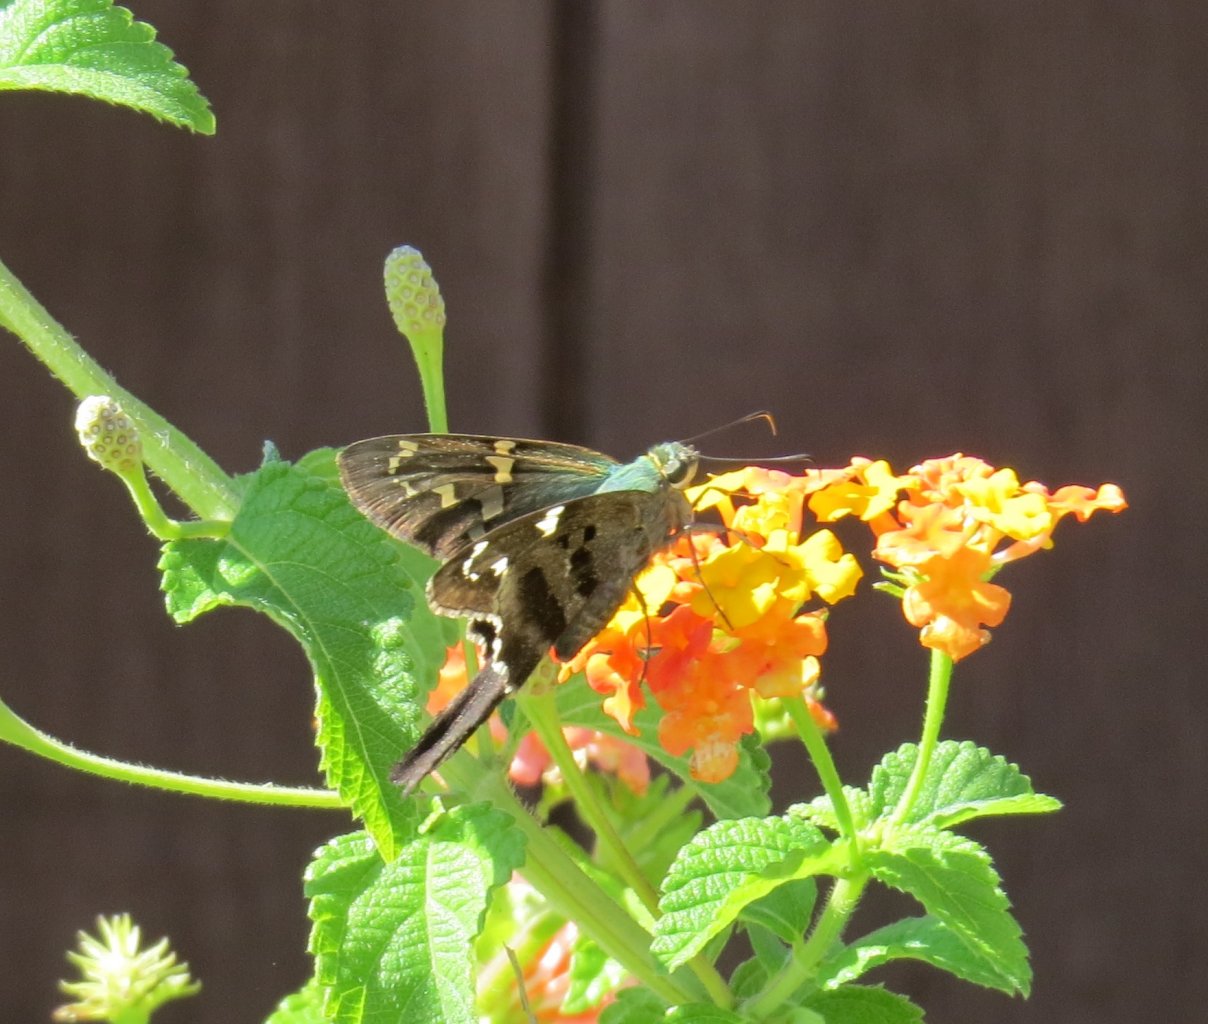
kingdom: Animalia
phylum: Arthropoda
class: Insecta
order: Lepidoptera
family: Hesperiidae
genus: Urbanus
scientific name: Urbanus proteus
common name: Long-tailed Skipper
